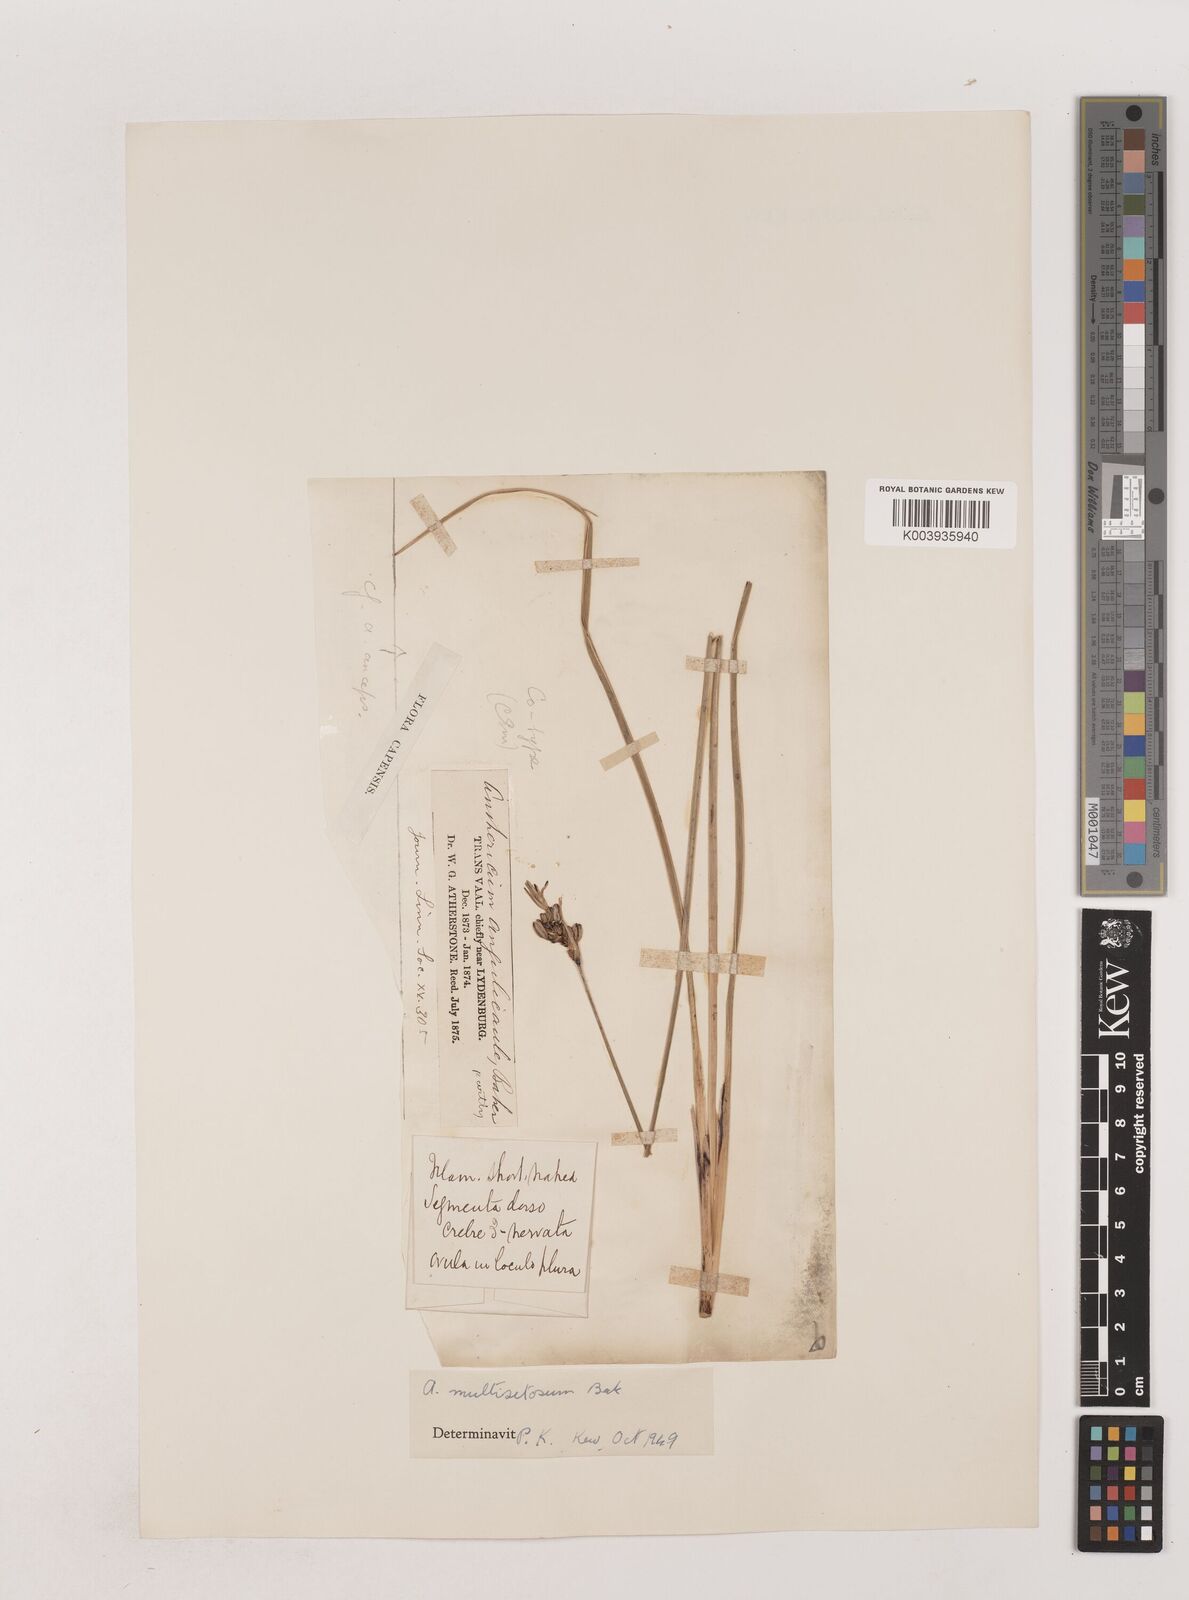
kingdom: Plantae
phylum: Tracheophyta
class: Liliopsida
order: Asparagales
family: Asparagaceae
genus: Chlorophytum
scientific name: Chlorophytum angulicaule
